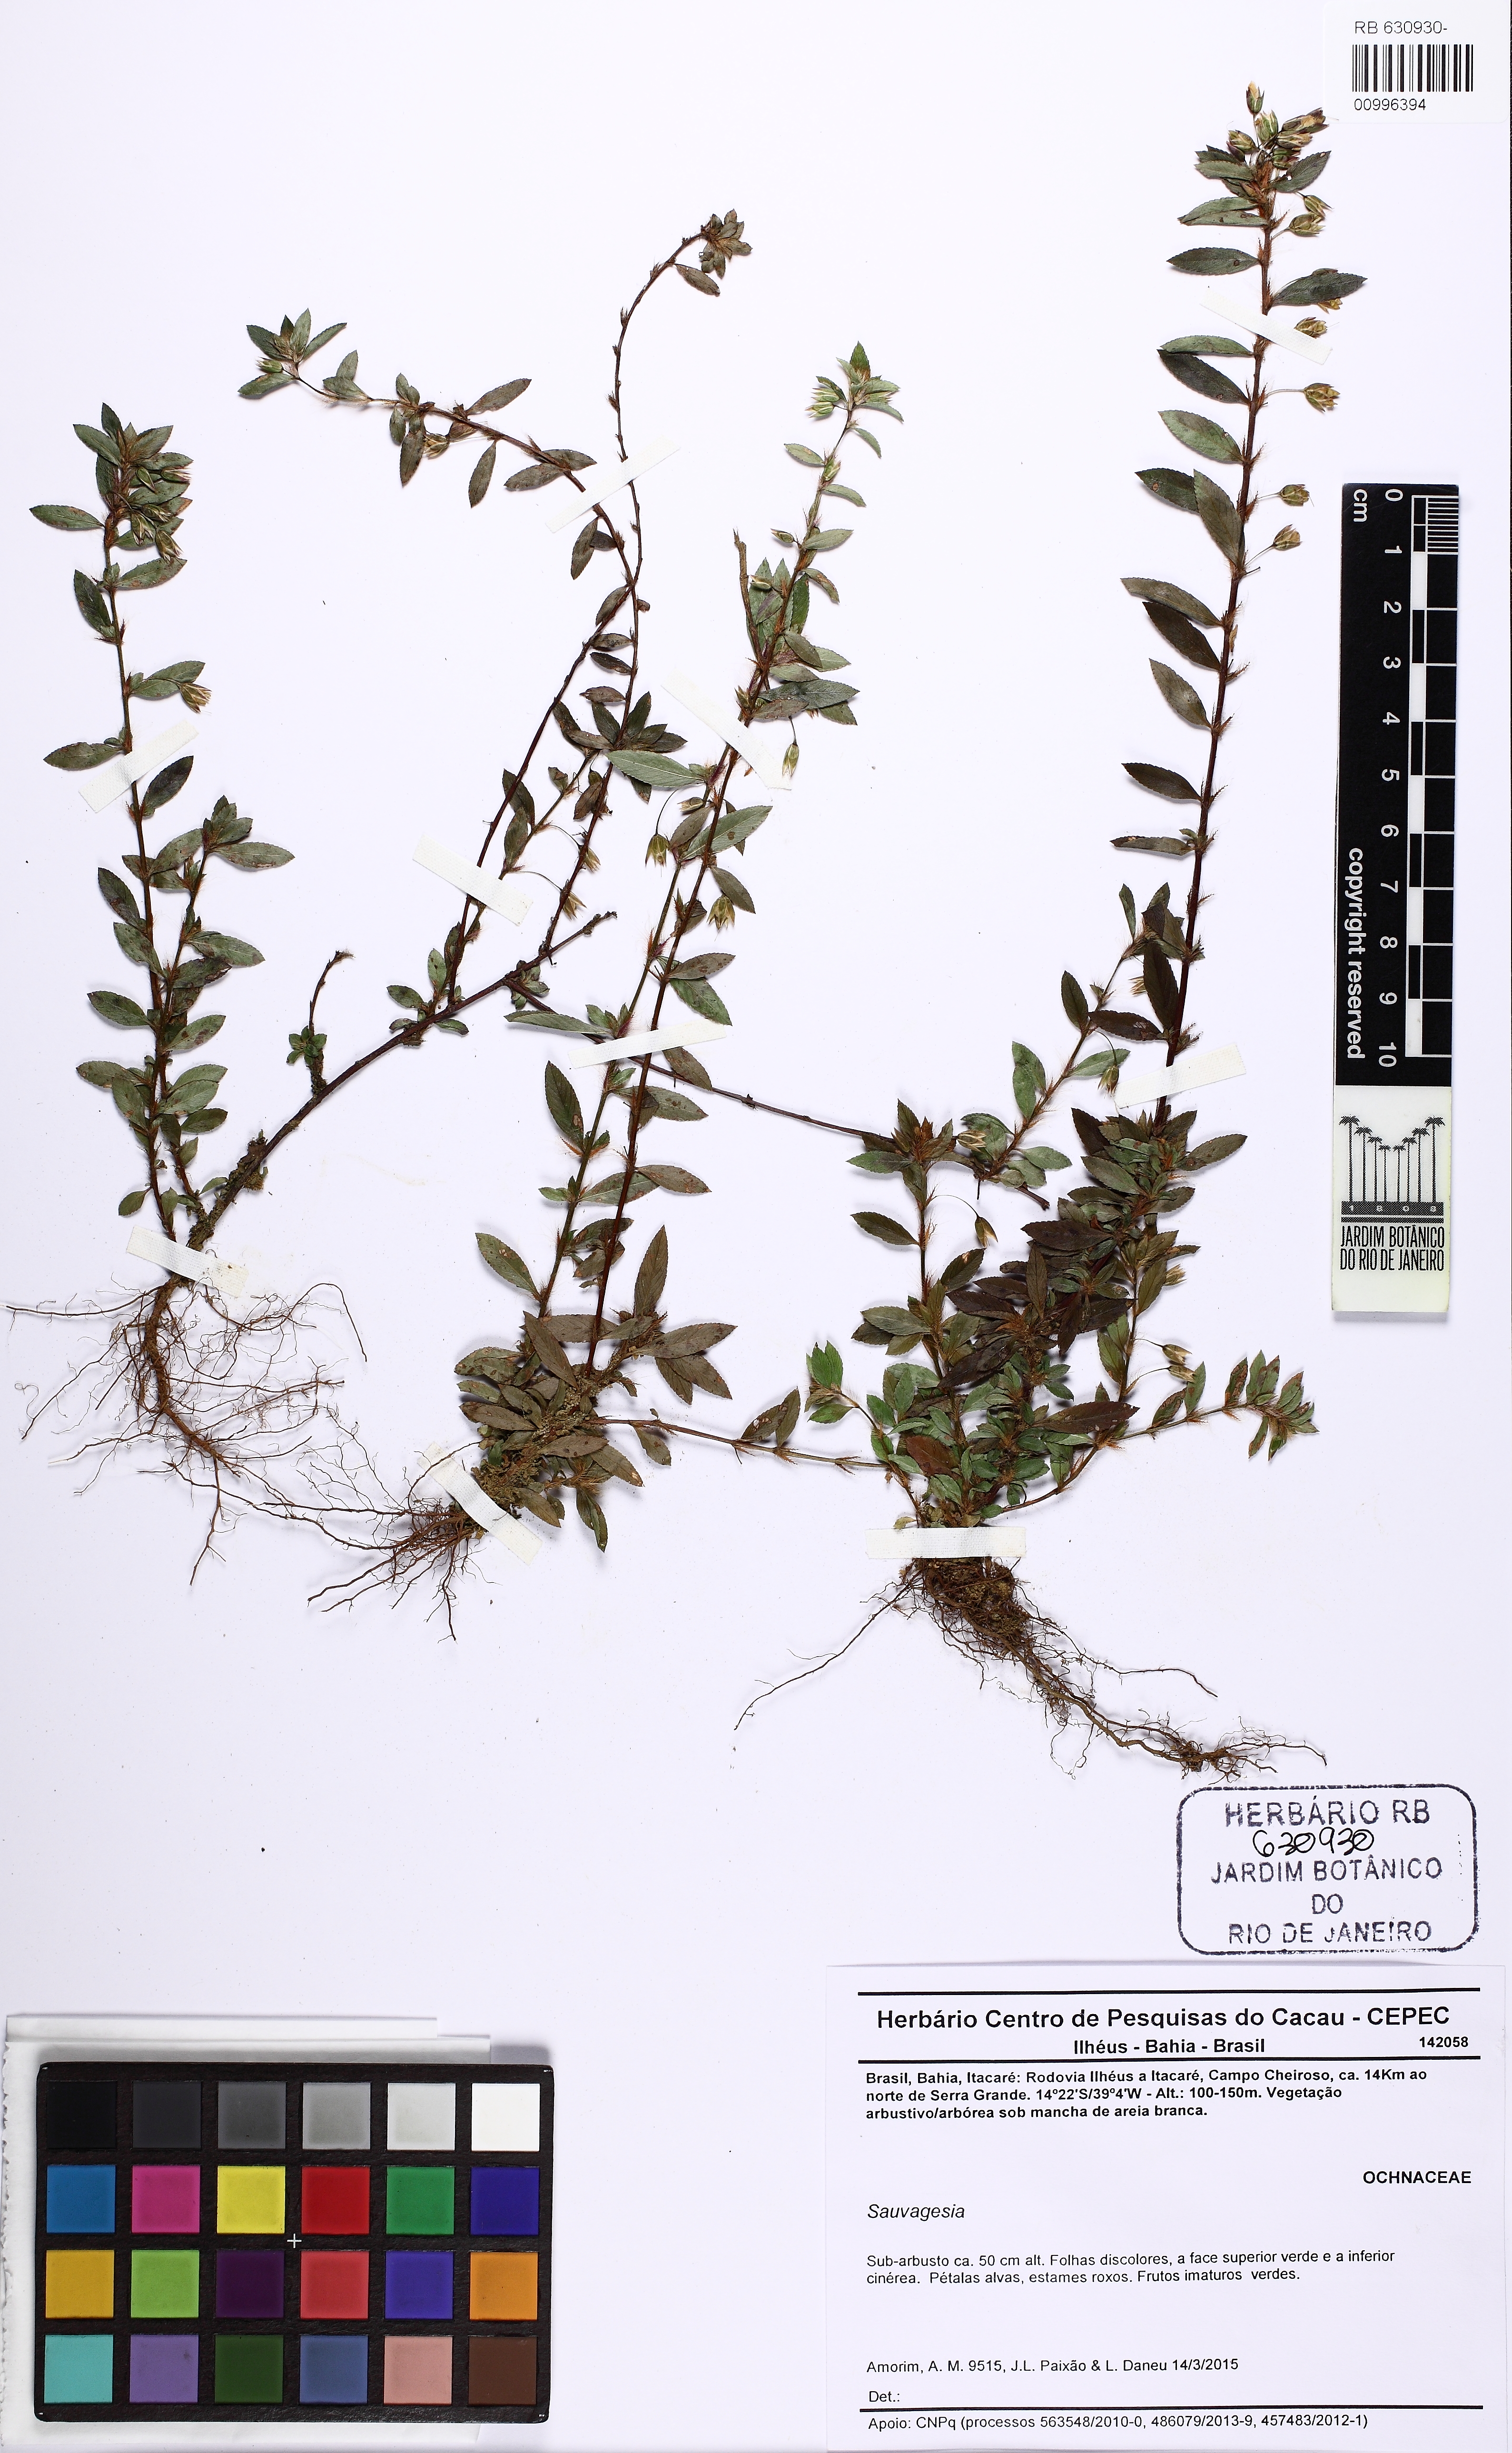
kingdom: Plantae
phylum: Tracheophyta
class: Magnoliopsida
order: Malpighiales
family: Ochnaceae
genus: Sauvagesia
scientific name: Sauvagesia erecta
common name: Creole tea
